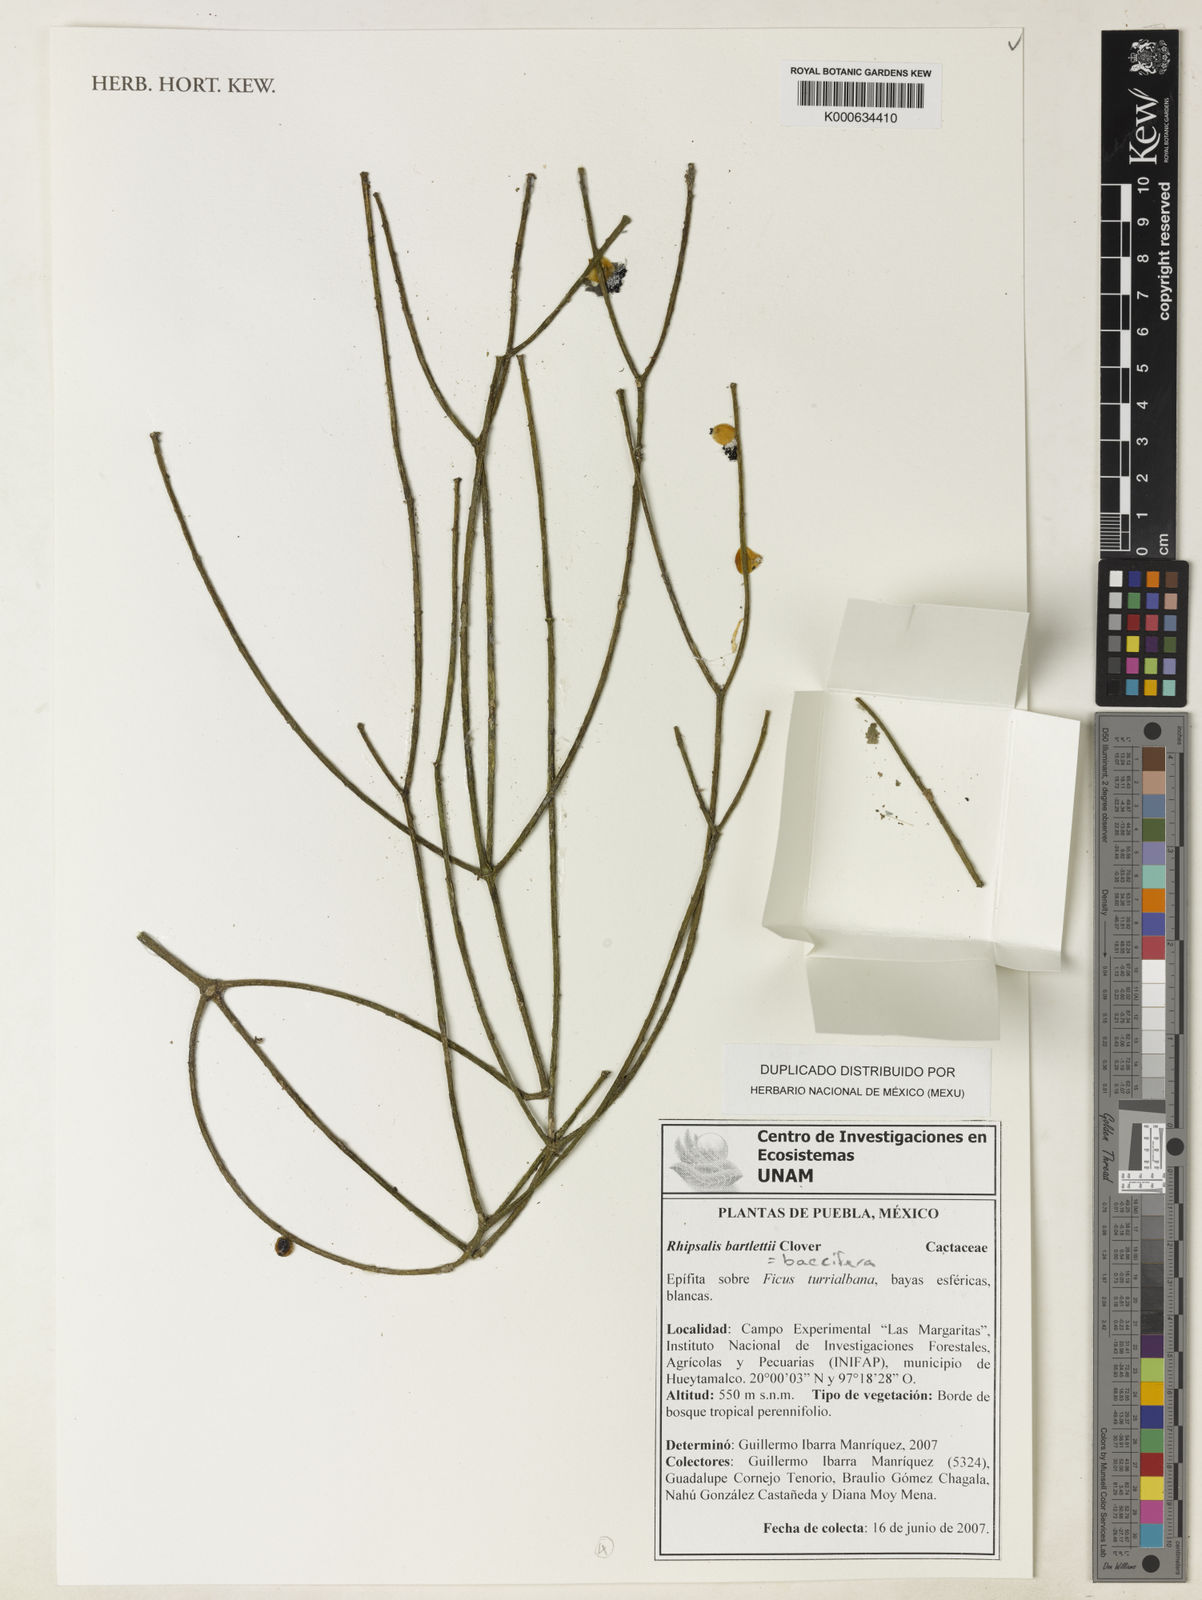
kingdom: Plantae
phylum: Tracheophyta
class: Magnoliopsida
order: Caryophyllales
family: Cactaceae
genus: Rhipsalis
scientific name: Rhipsalis baccifera
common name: Mistletoe cactus
